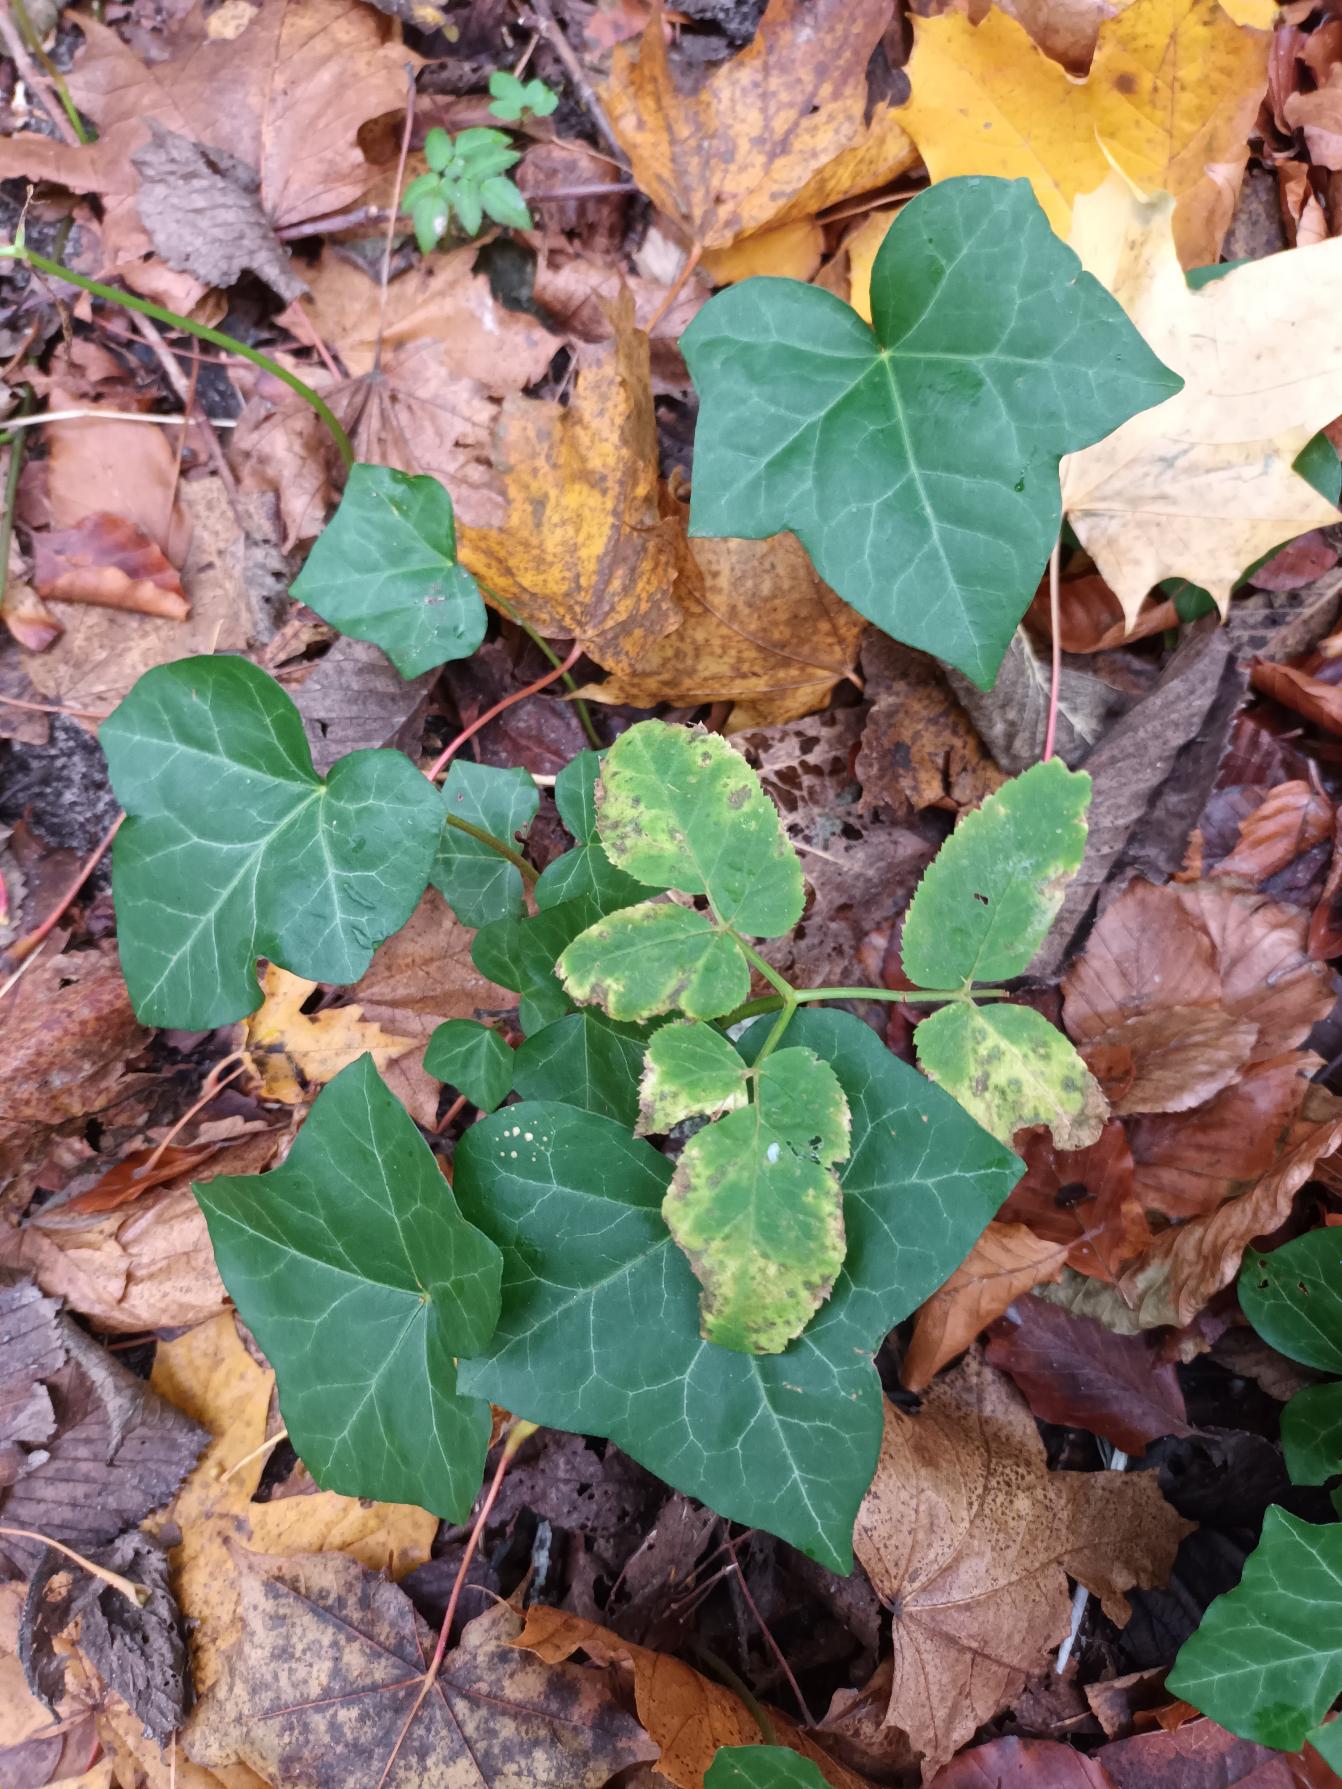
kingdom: Plantae
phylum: Tracheophyta
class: Magnoliopsida
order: Apiales
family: Araliaceae
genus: Hedera
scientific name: Hedera hibernica
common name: Irsk vedbend
